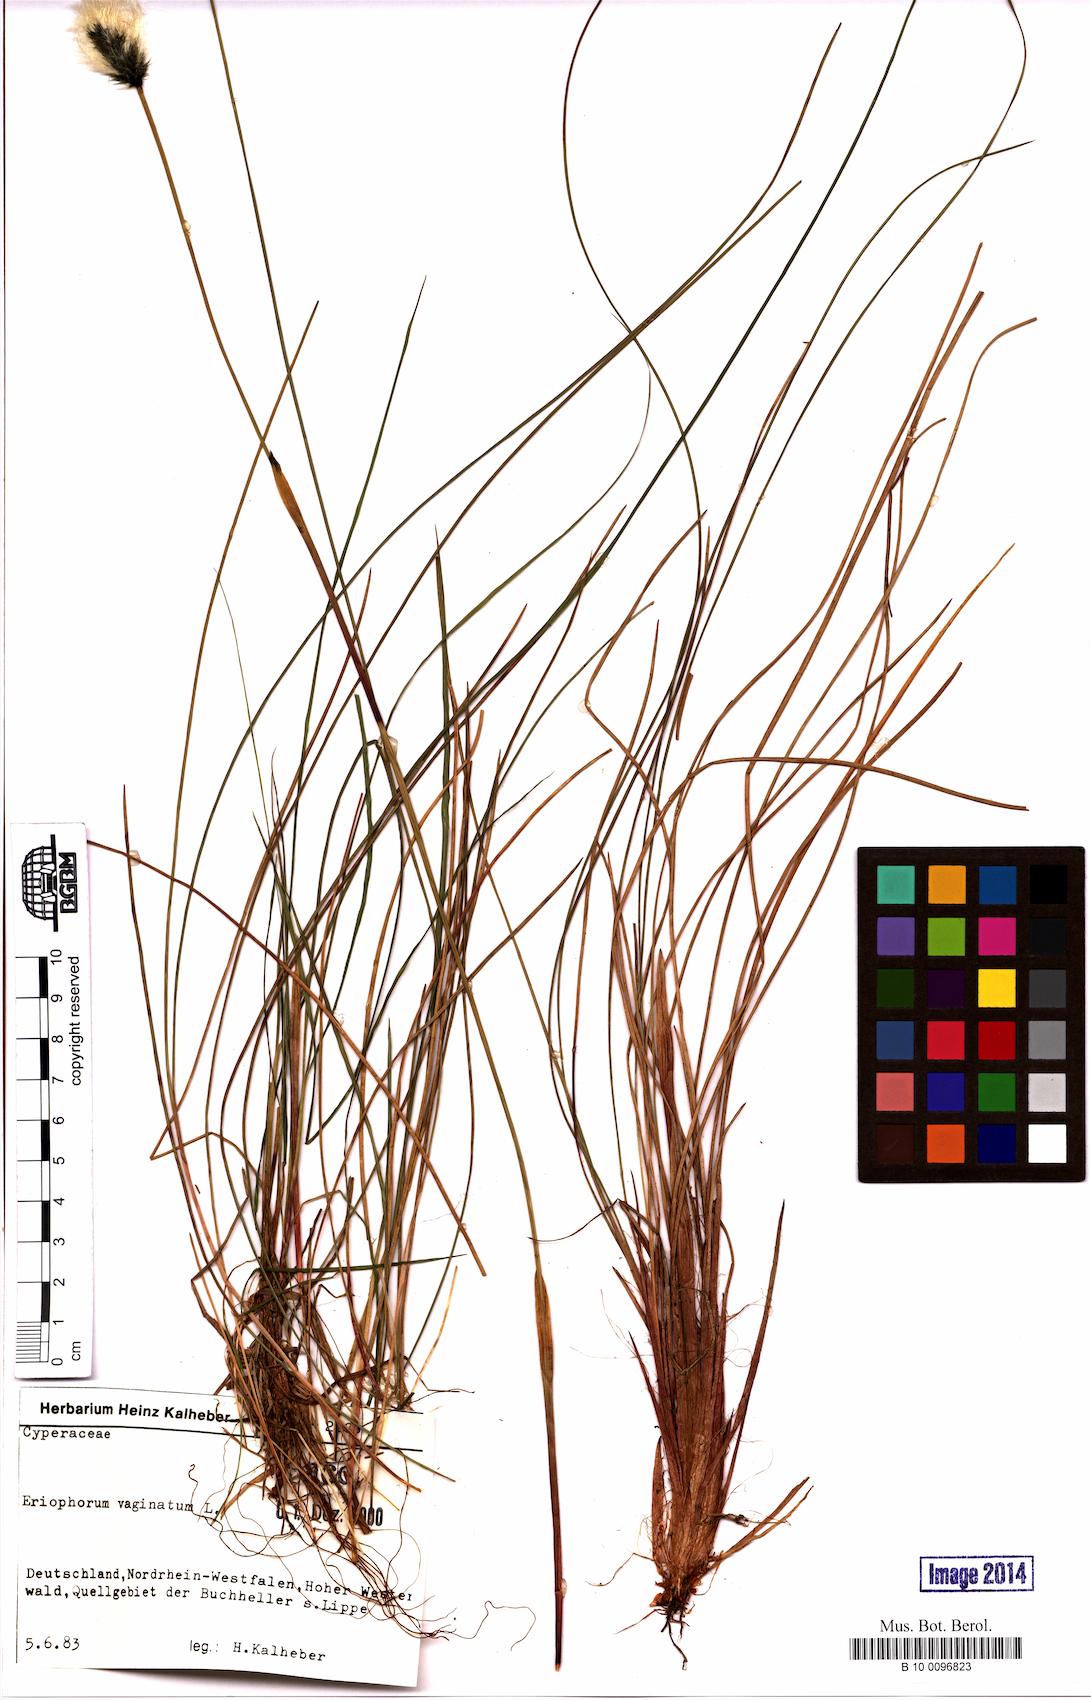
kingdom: Plantae
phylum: Tracheophyta
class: Liliopsida
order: Poales
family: Cyperaceae
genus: Eriophorum
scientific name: Eriophorum vaginatum
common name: Hare's-tail cottongrass
